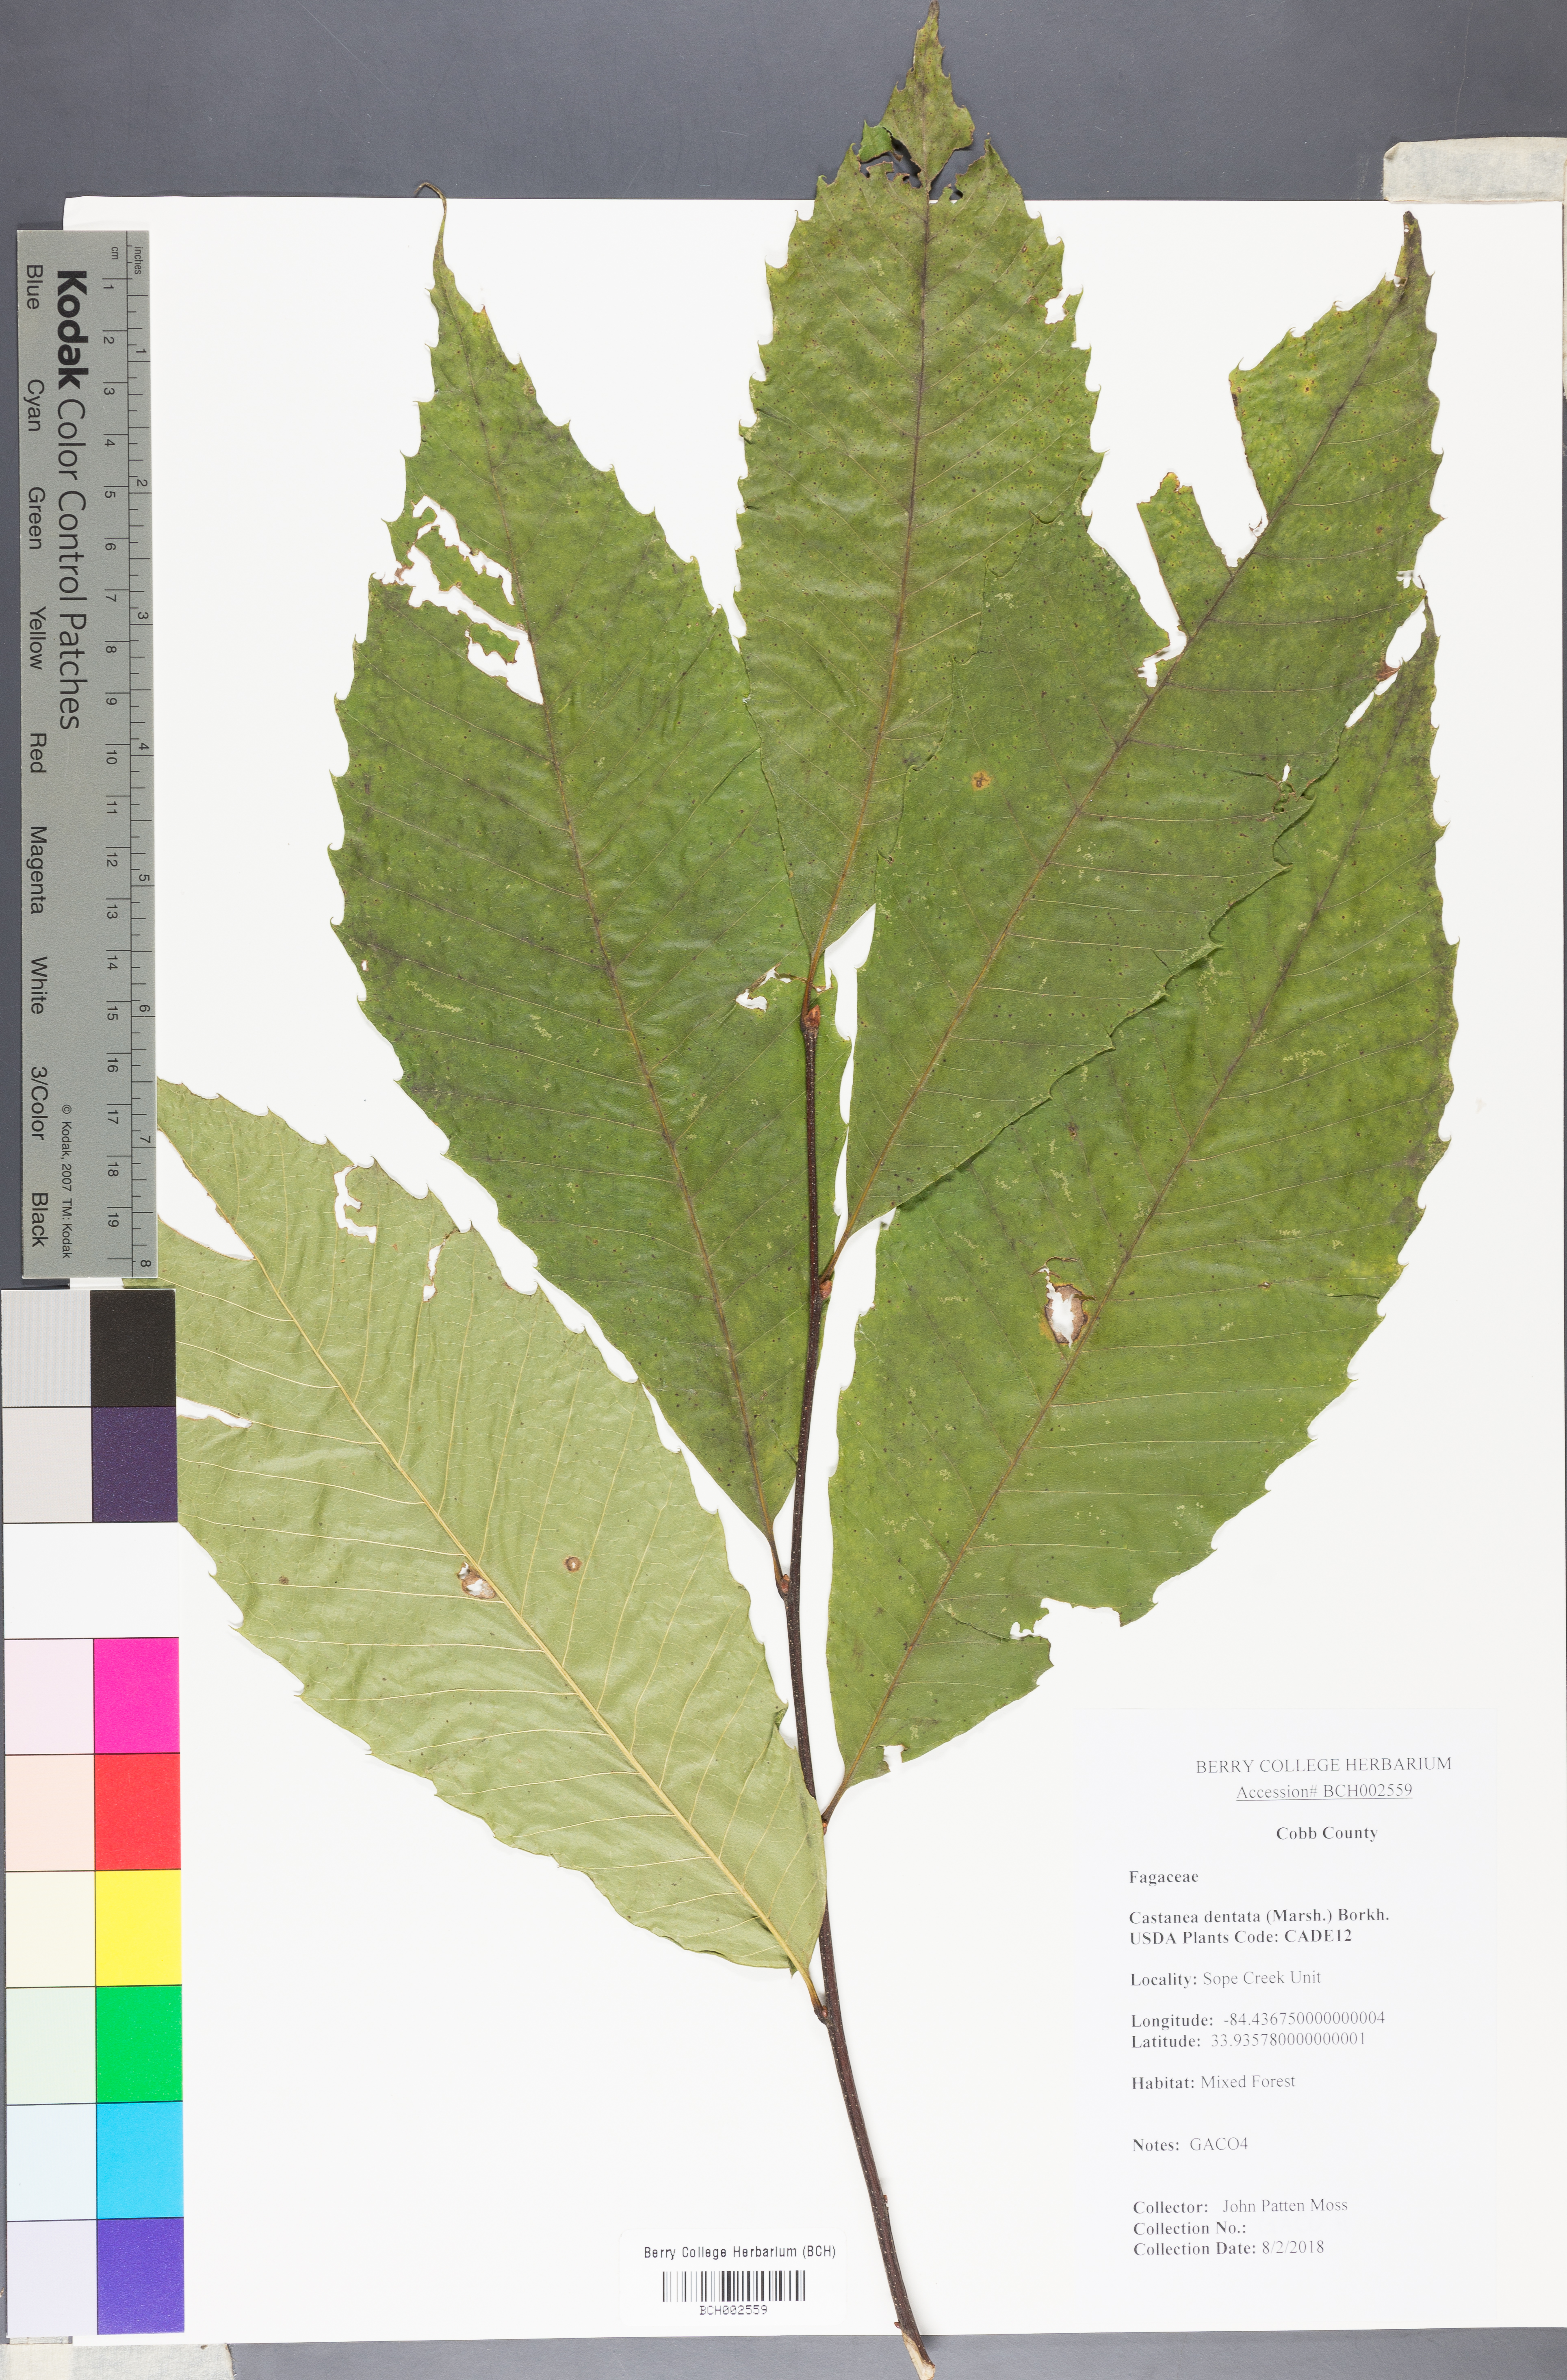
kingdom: Plantae
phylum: Tracheophyta
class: Magnoliopsida
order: Fagales
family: Fagaceae
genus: Castanea
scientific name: Castanea dentata
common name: American chestnut
